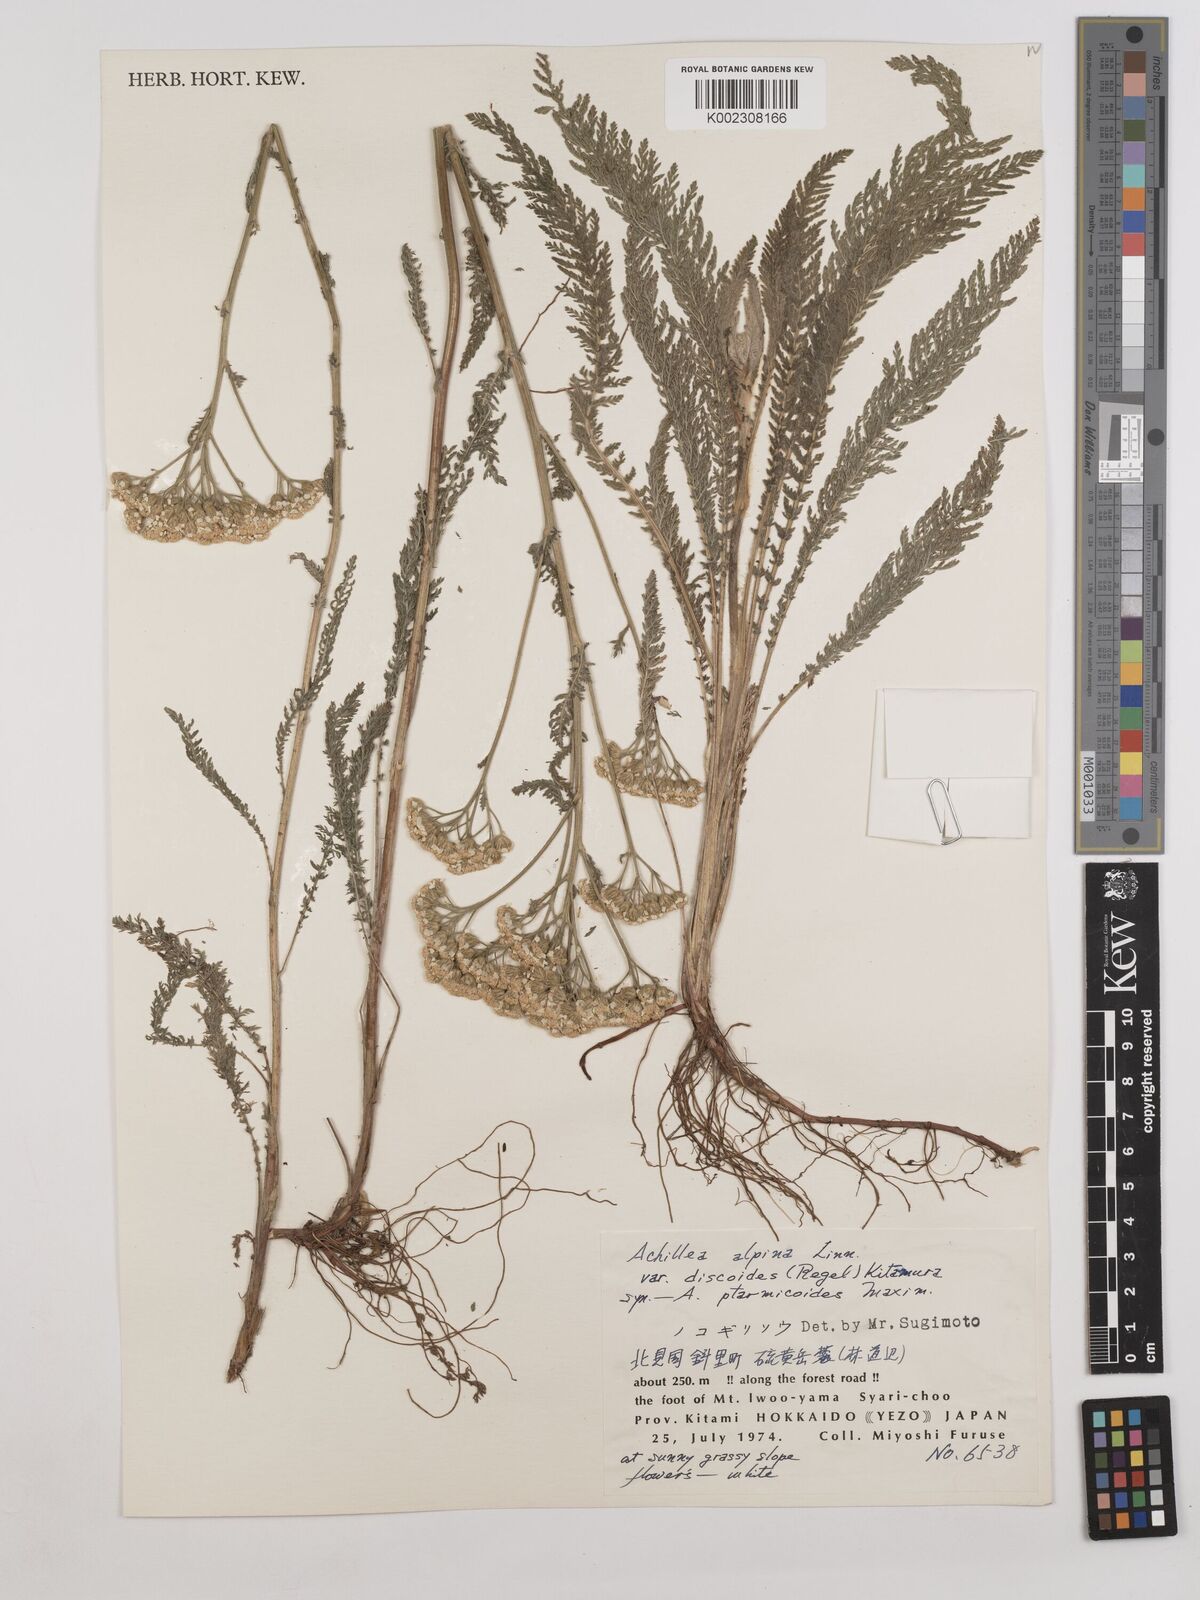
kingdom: Plantae
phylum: Tracheophyta
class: Magnoliopsida
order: Asterales
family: Asteraceae
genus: Achillea
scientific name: Achillea ptarmicoides
